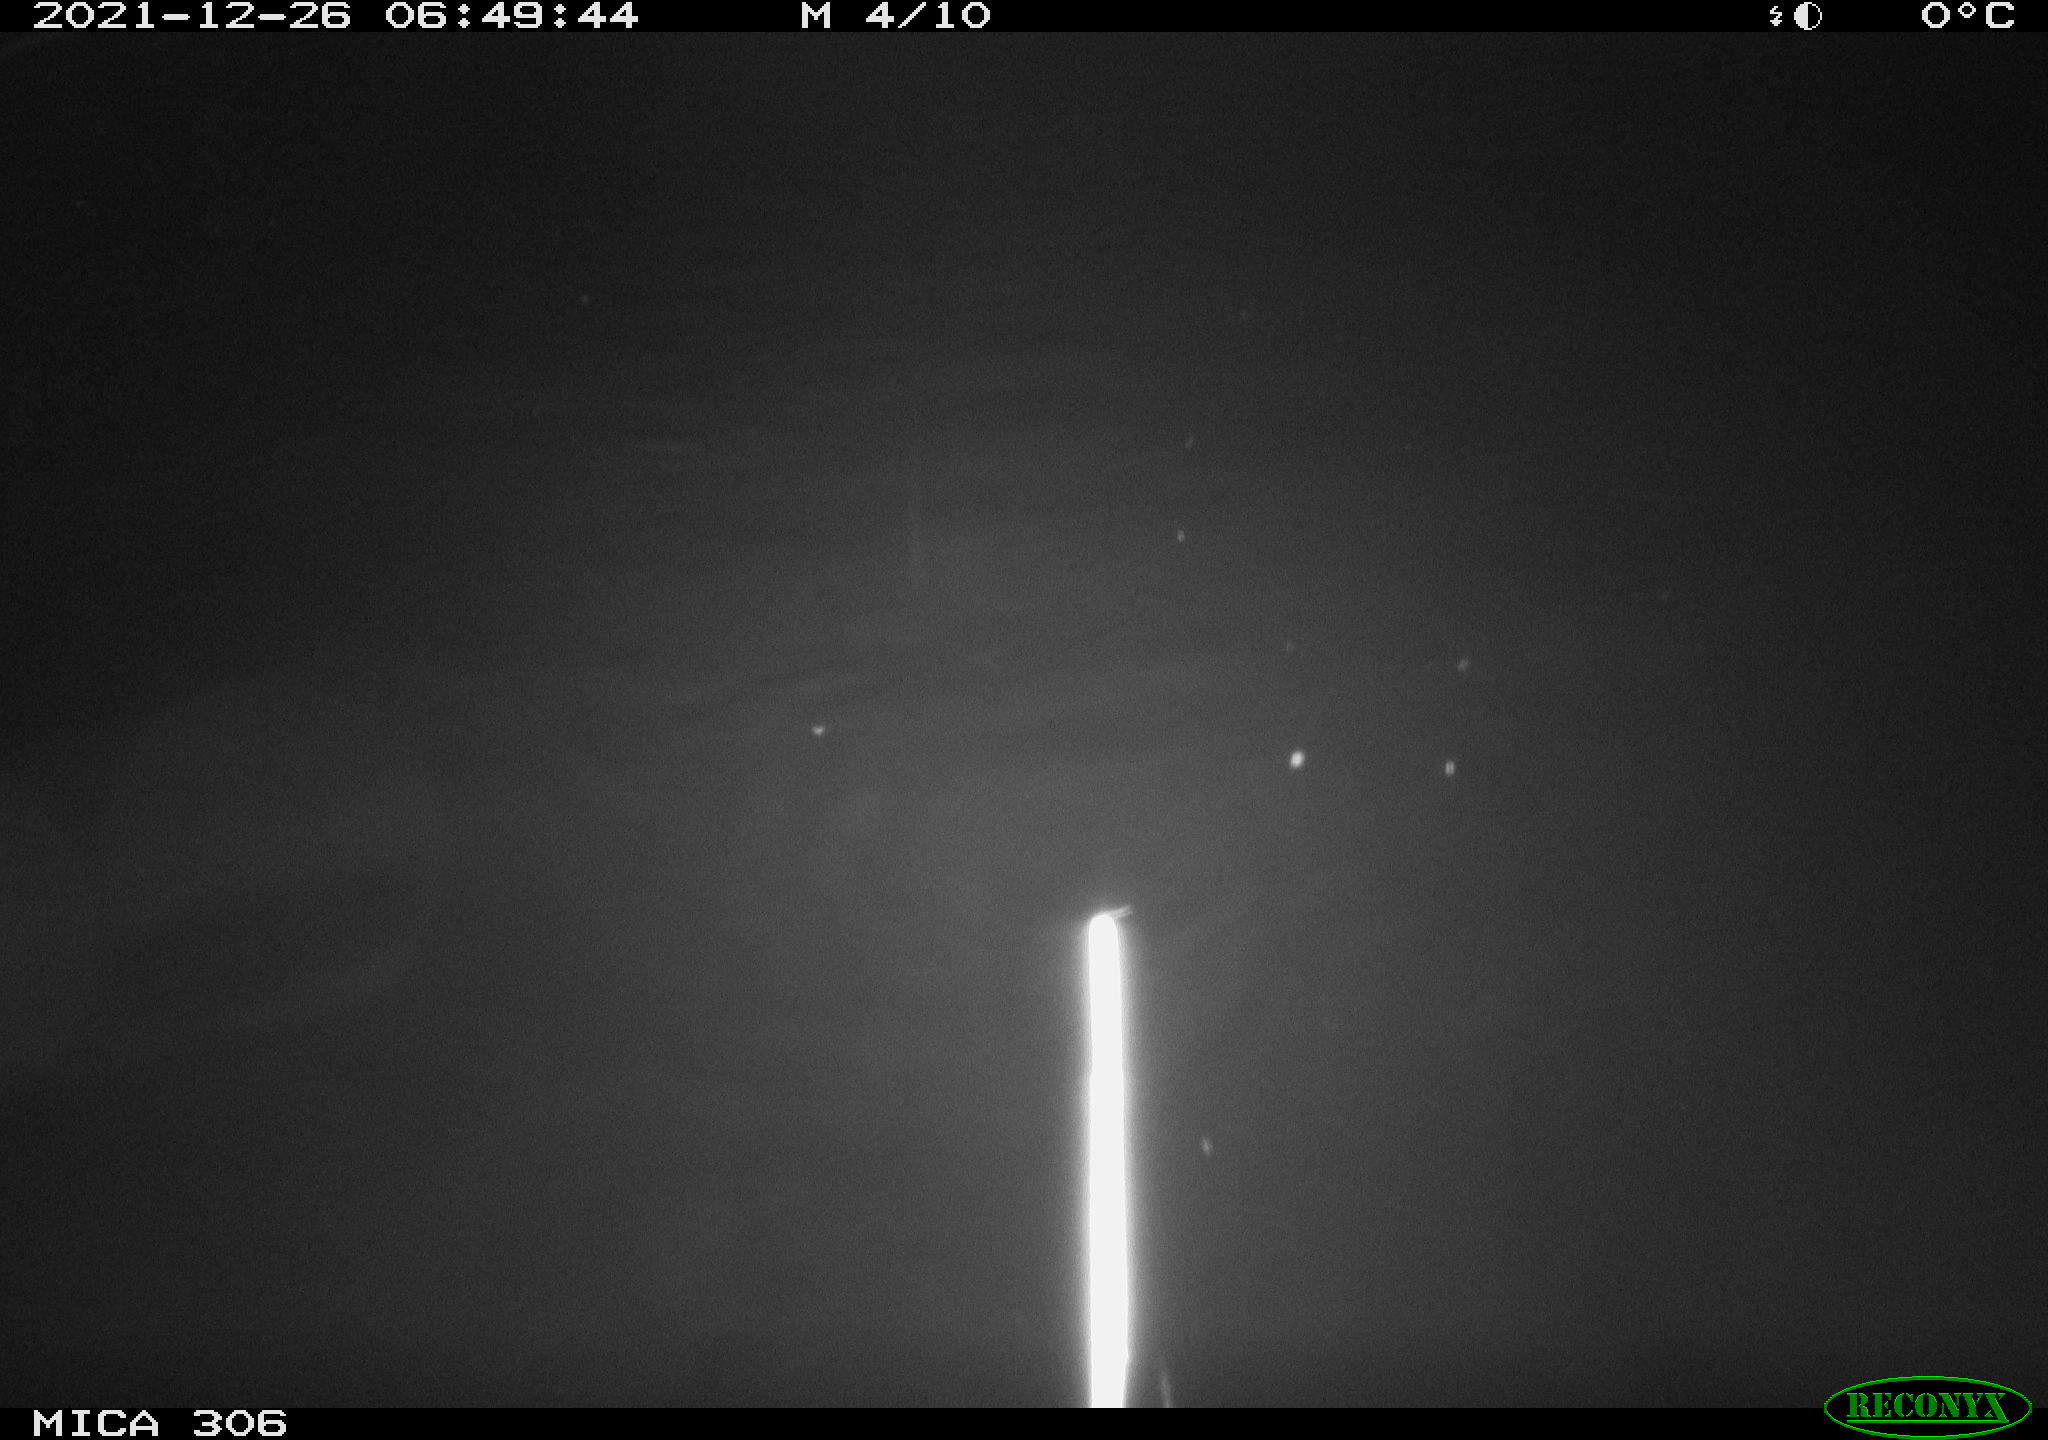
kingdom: Animalia
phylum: Chordata
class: Mammalia
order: Rodentia
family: Cricetidae
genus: Ondatra
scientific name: Ondatra zibethicus
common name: Muskrat
